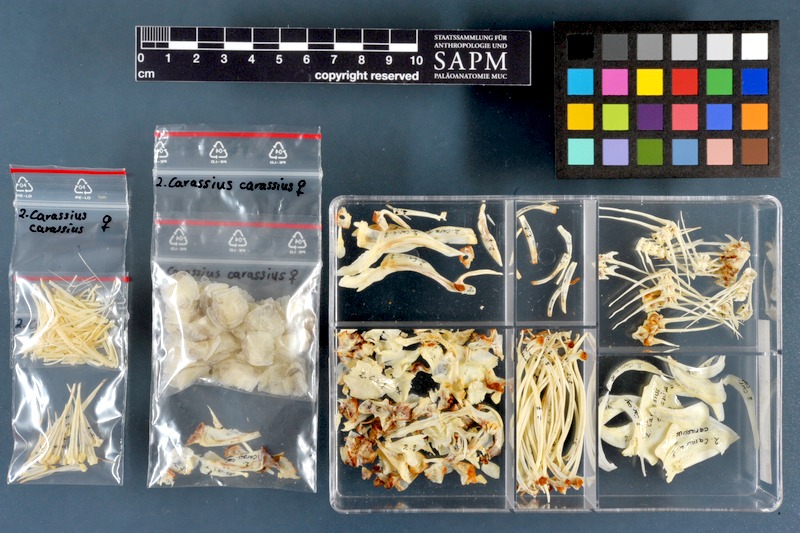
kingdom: Animalia
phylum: Chordata
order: Cypriniformes
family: Cyprinidae
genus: Carassius
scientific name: Carassius carassius
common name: Crucian carp
